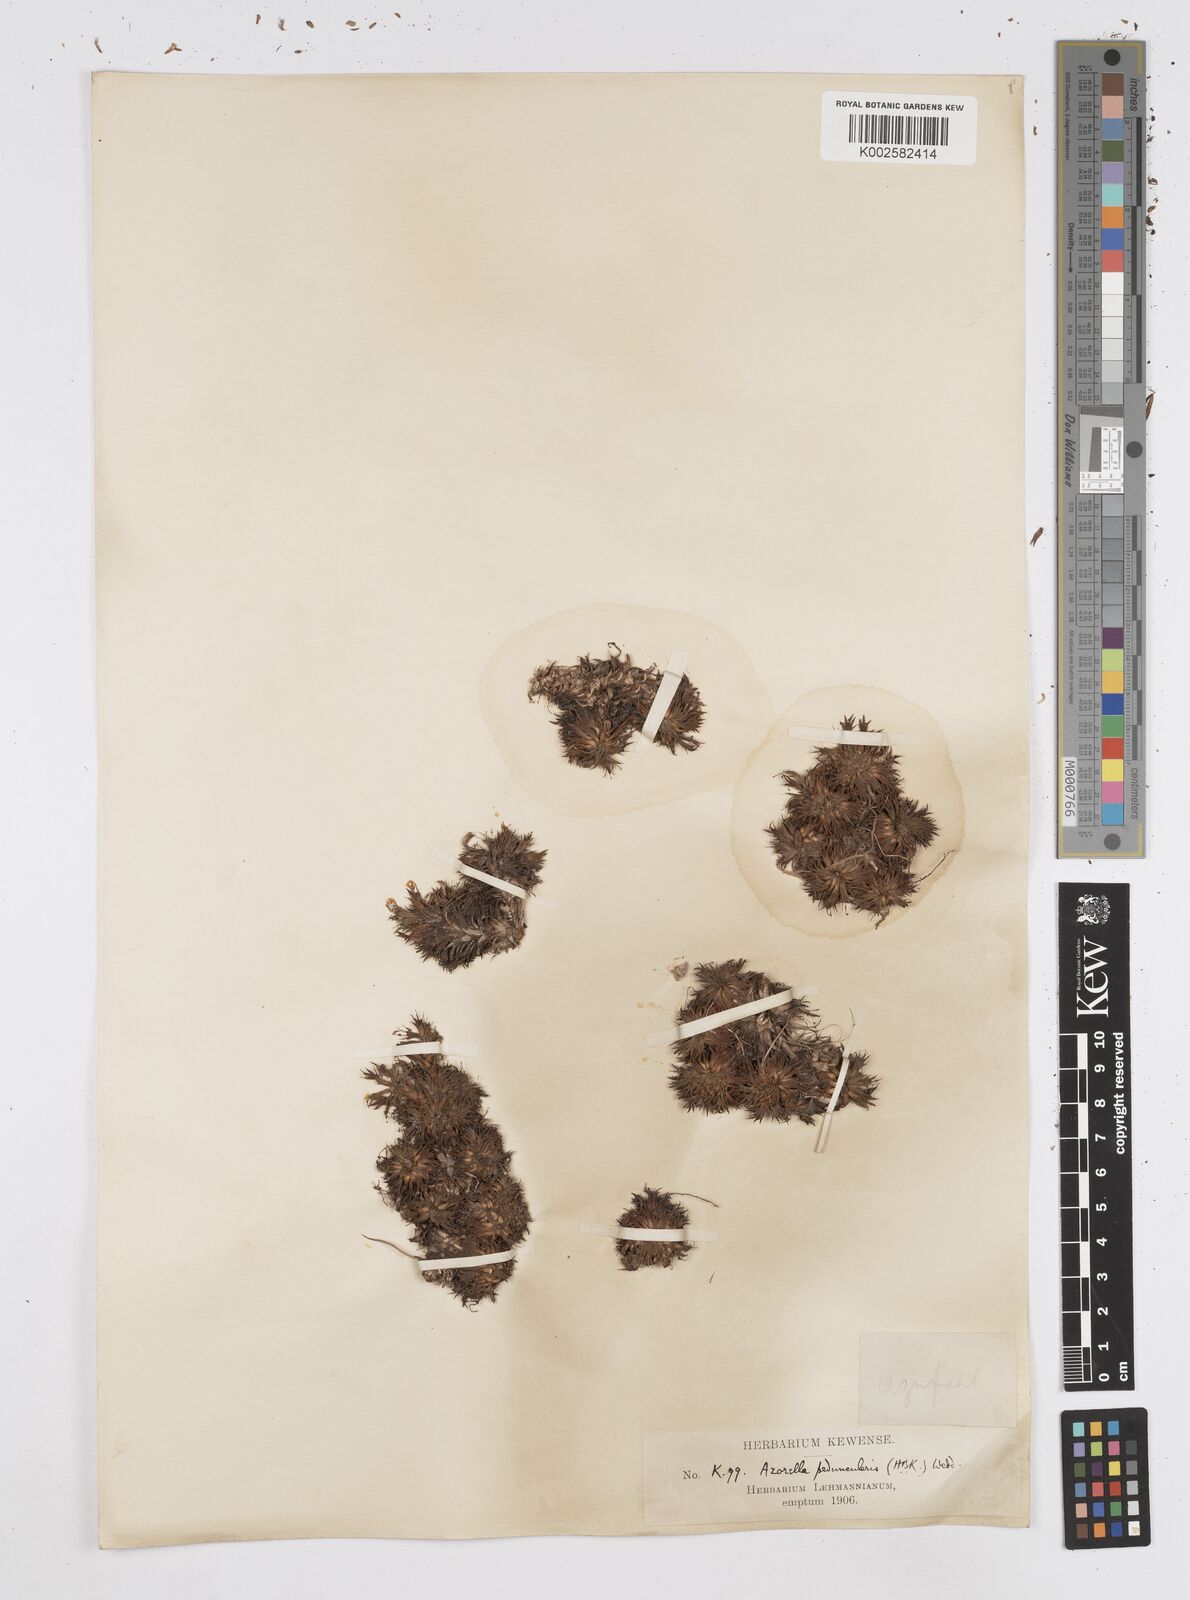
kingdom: Plantae
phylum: Tracheophyta
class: Magnoliopsida
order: Apiales
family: Apiaceae
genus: Azorella
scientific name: Azorella pedunculata
